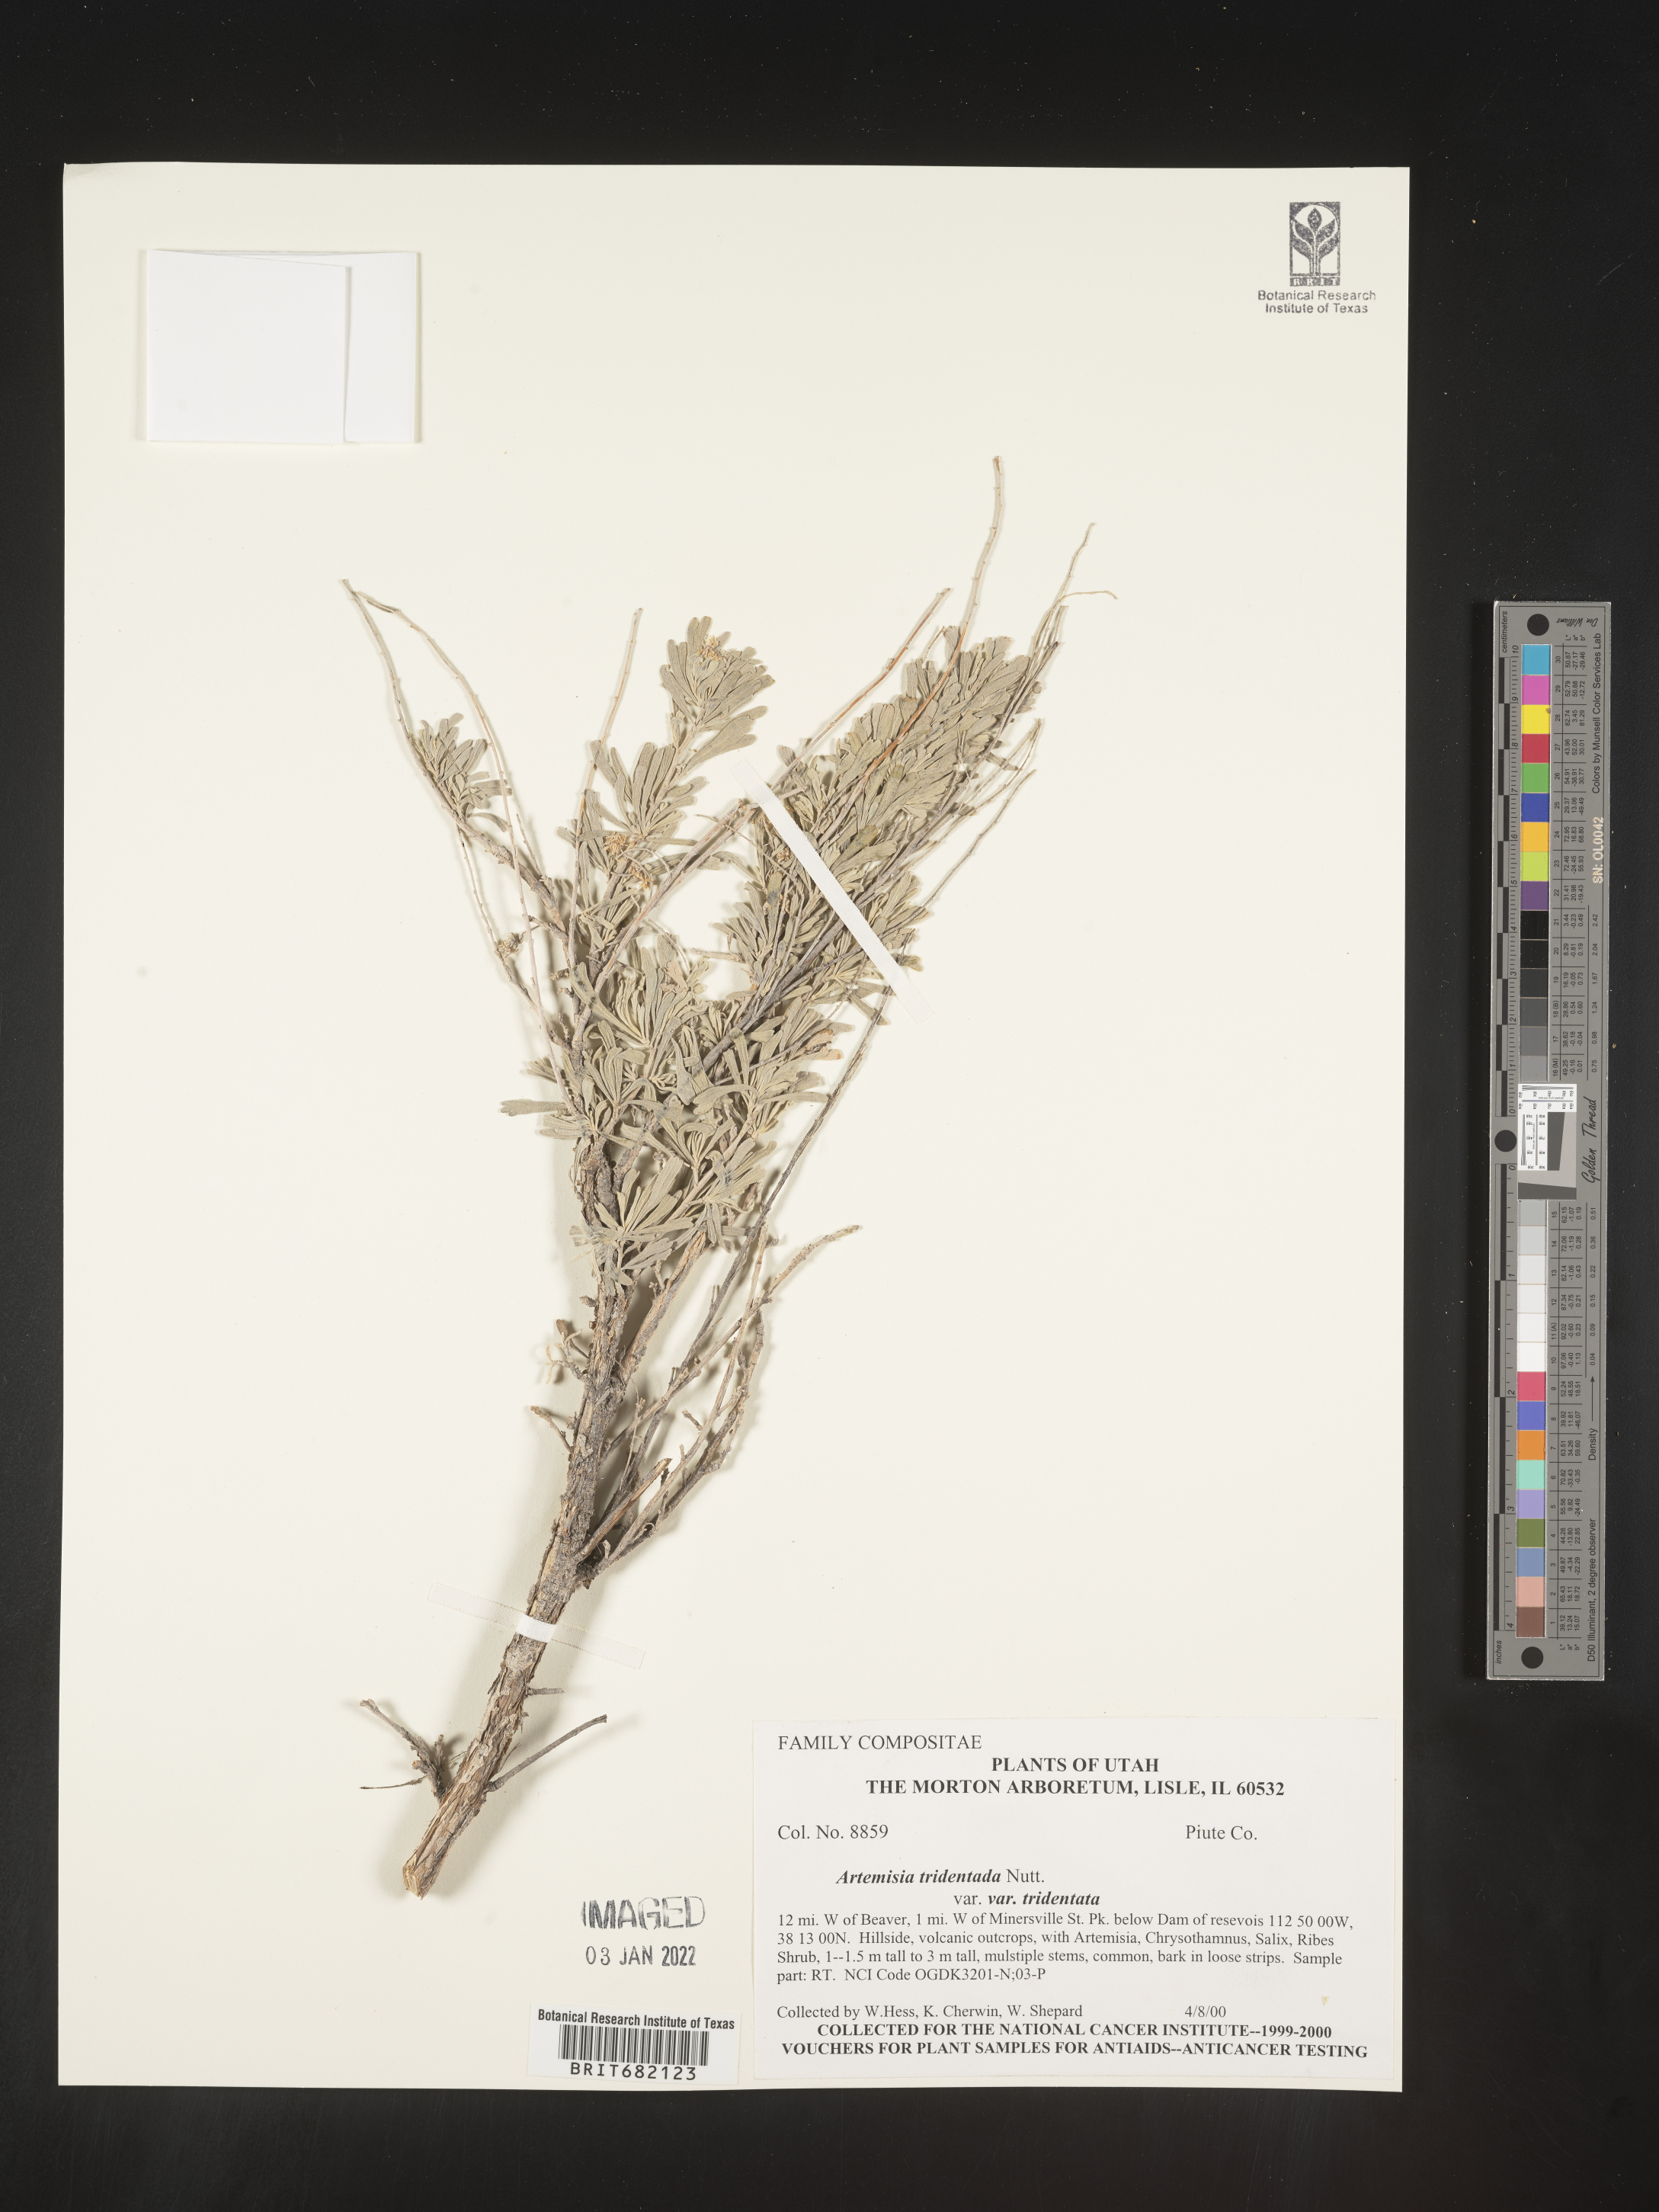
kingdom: Plantae
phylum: Tracheophyta
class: Magnoliopsida
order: Asterales
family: Asteraceae
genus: Artemisia
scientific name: Artemisia tridentata
